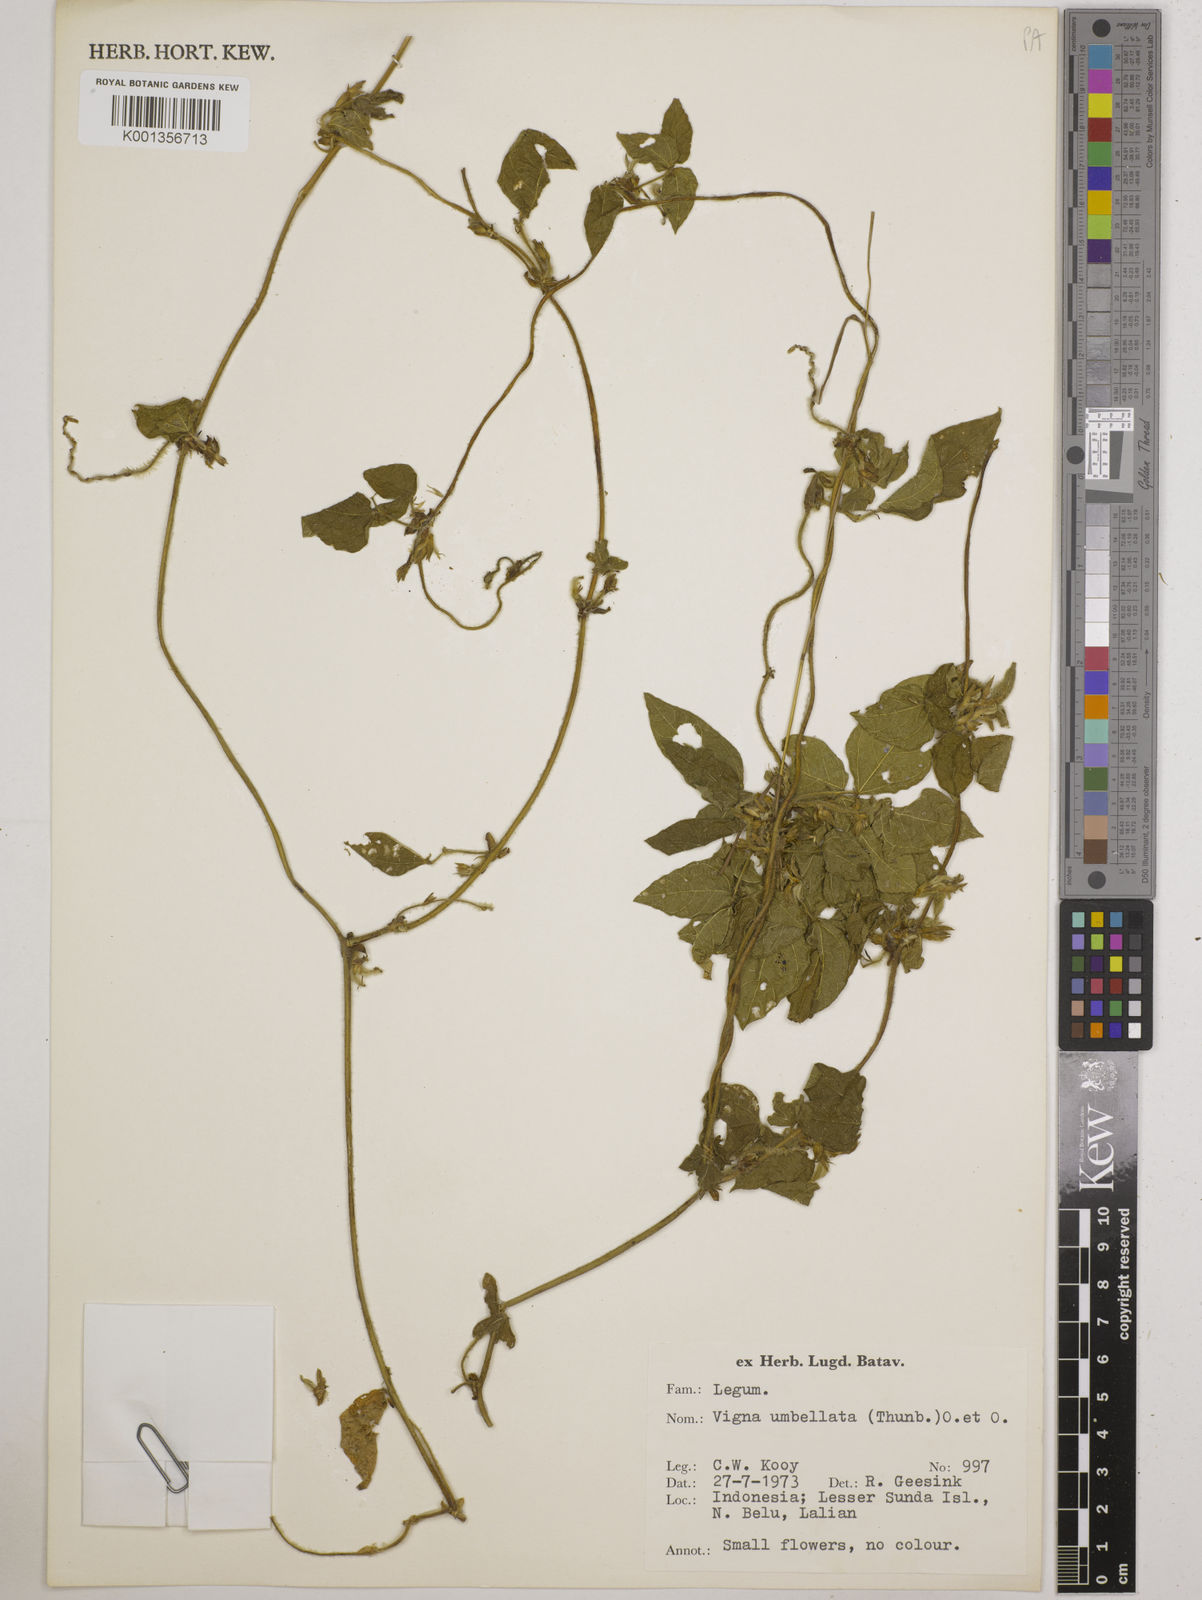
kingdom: Plantae
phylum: Tracheophyta
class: Magnoliopsida
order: Fabales
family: Fabaceae
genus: Vigna
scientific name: Vigna umbellata
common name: Oriental-bean
